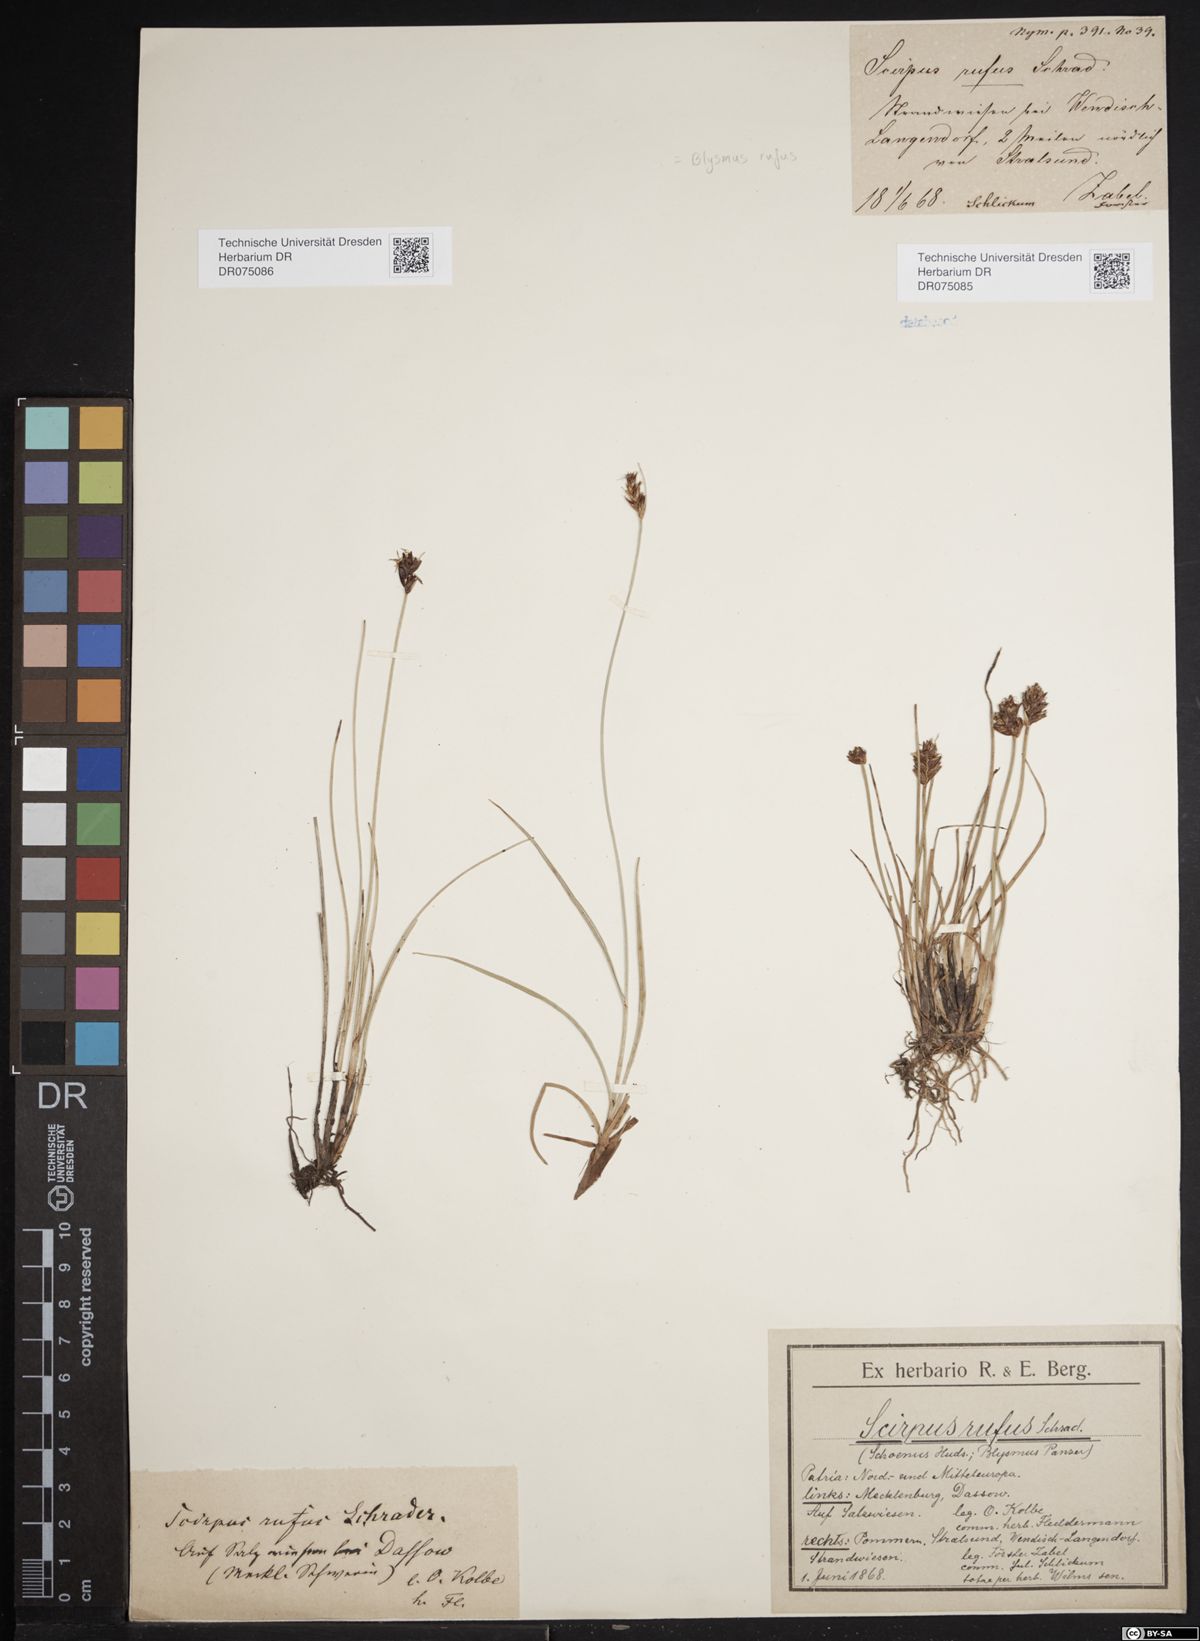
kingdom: Plantae
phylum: Tracheophyta
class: Liliopsida
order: Poales
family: Cyperaceae
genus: Blysmus
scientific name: Blysmus rufus
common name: Saltmarsh flat-sedge
